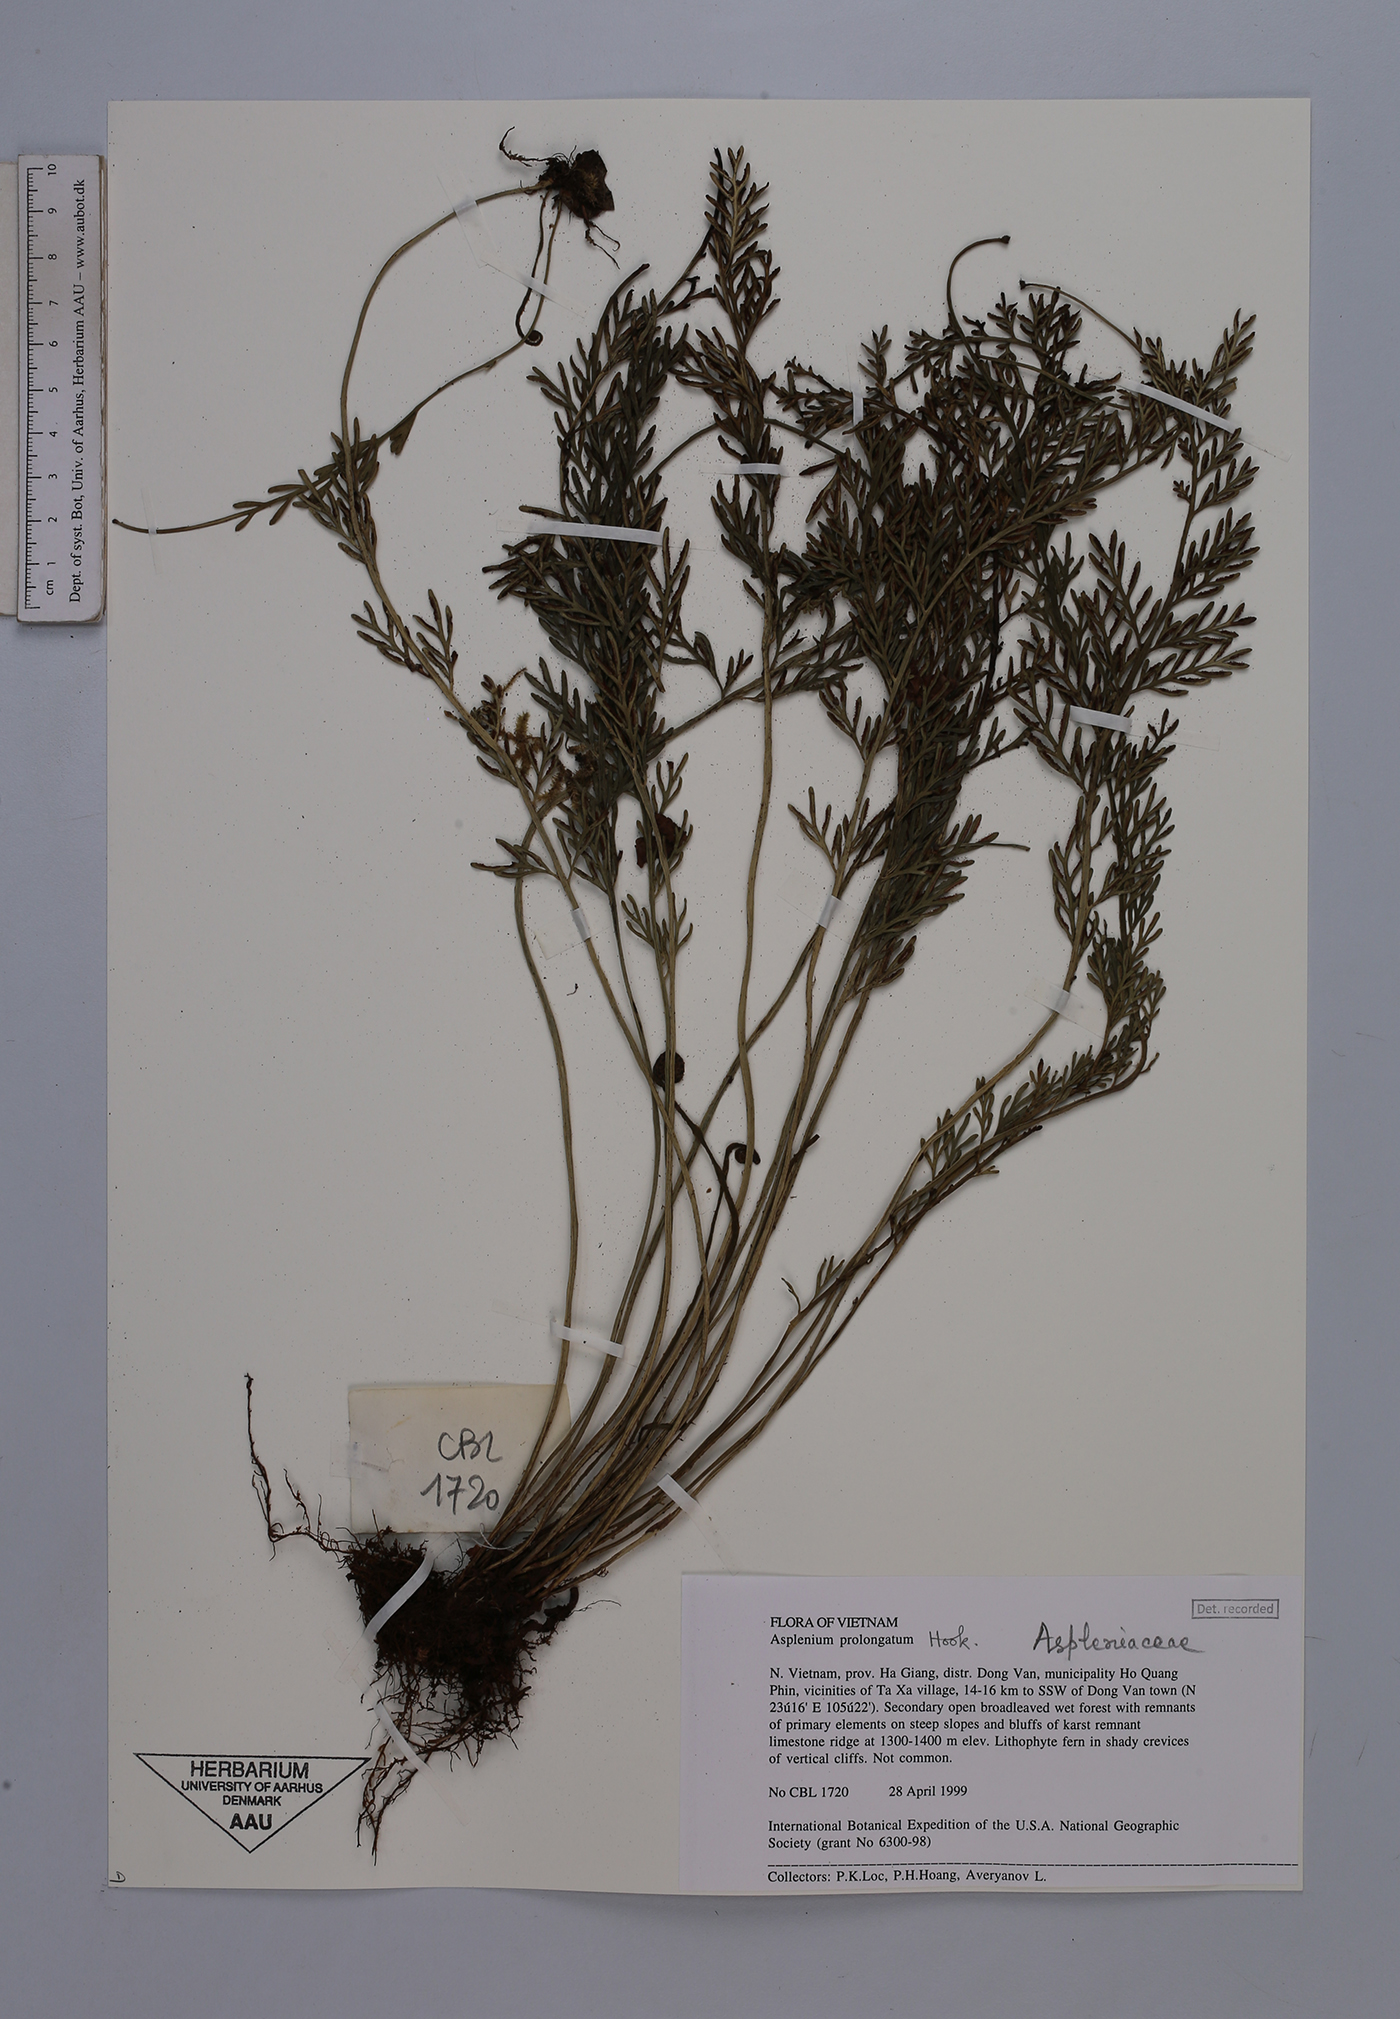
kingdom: Plantae
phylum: Tracheophyta
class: Polypodiopsida
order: Polypodiales
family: Aspleniaceae
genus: Asplenium
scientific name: Asplenium prolongatum
